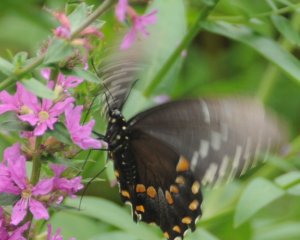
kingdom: Animalia
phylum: Arthropoda
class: Insecta
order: Lepidoptera
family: Papilionidae
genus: Papilio
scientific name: Papilio polyxenes
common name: Black Swallowtail
